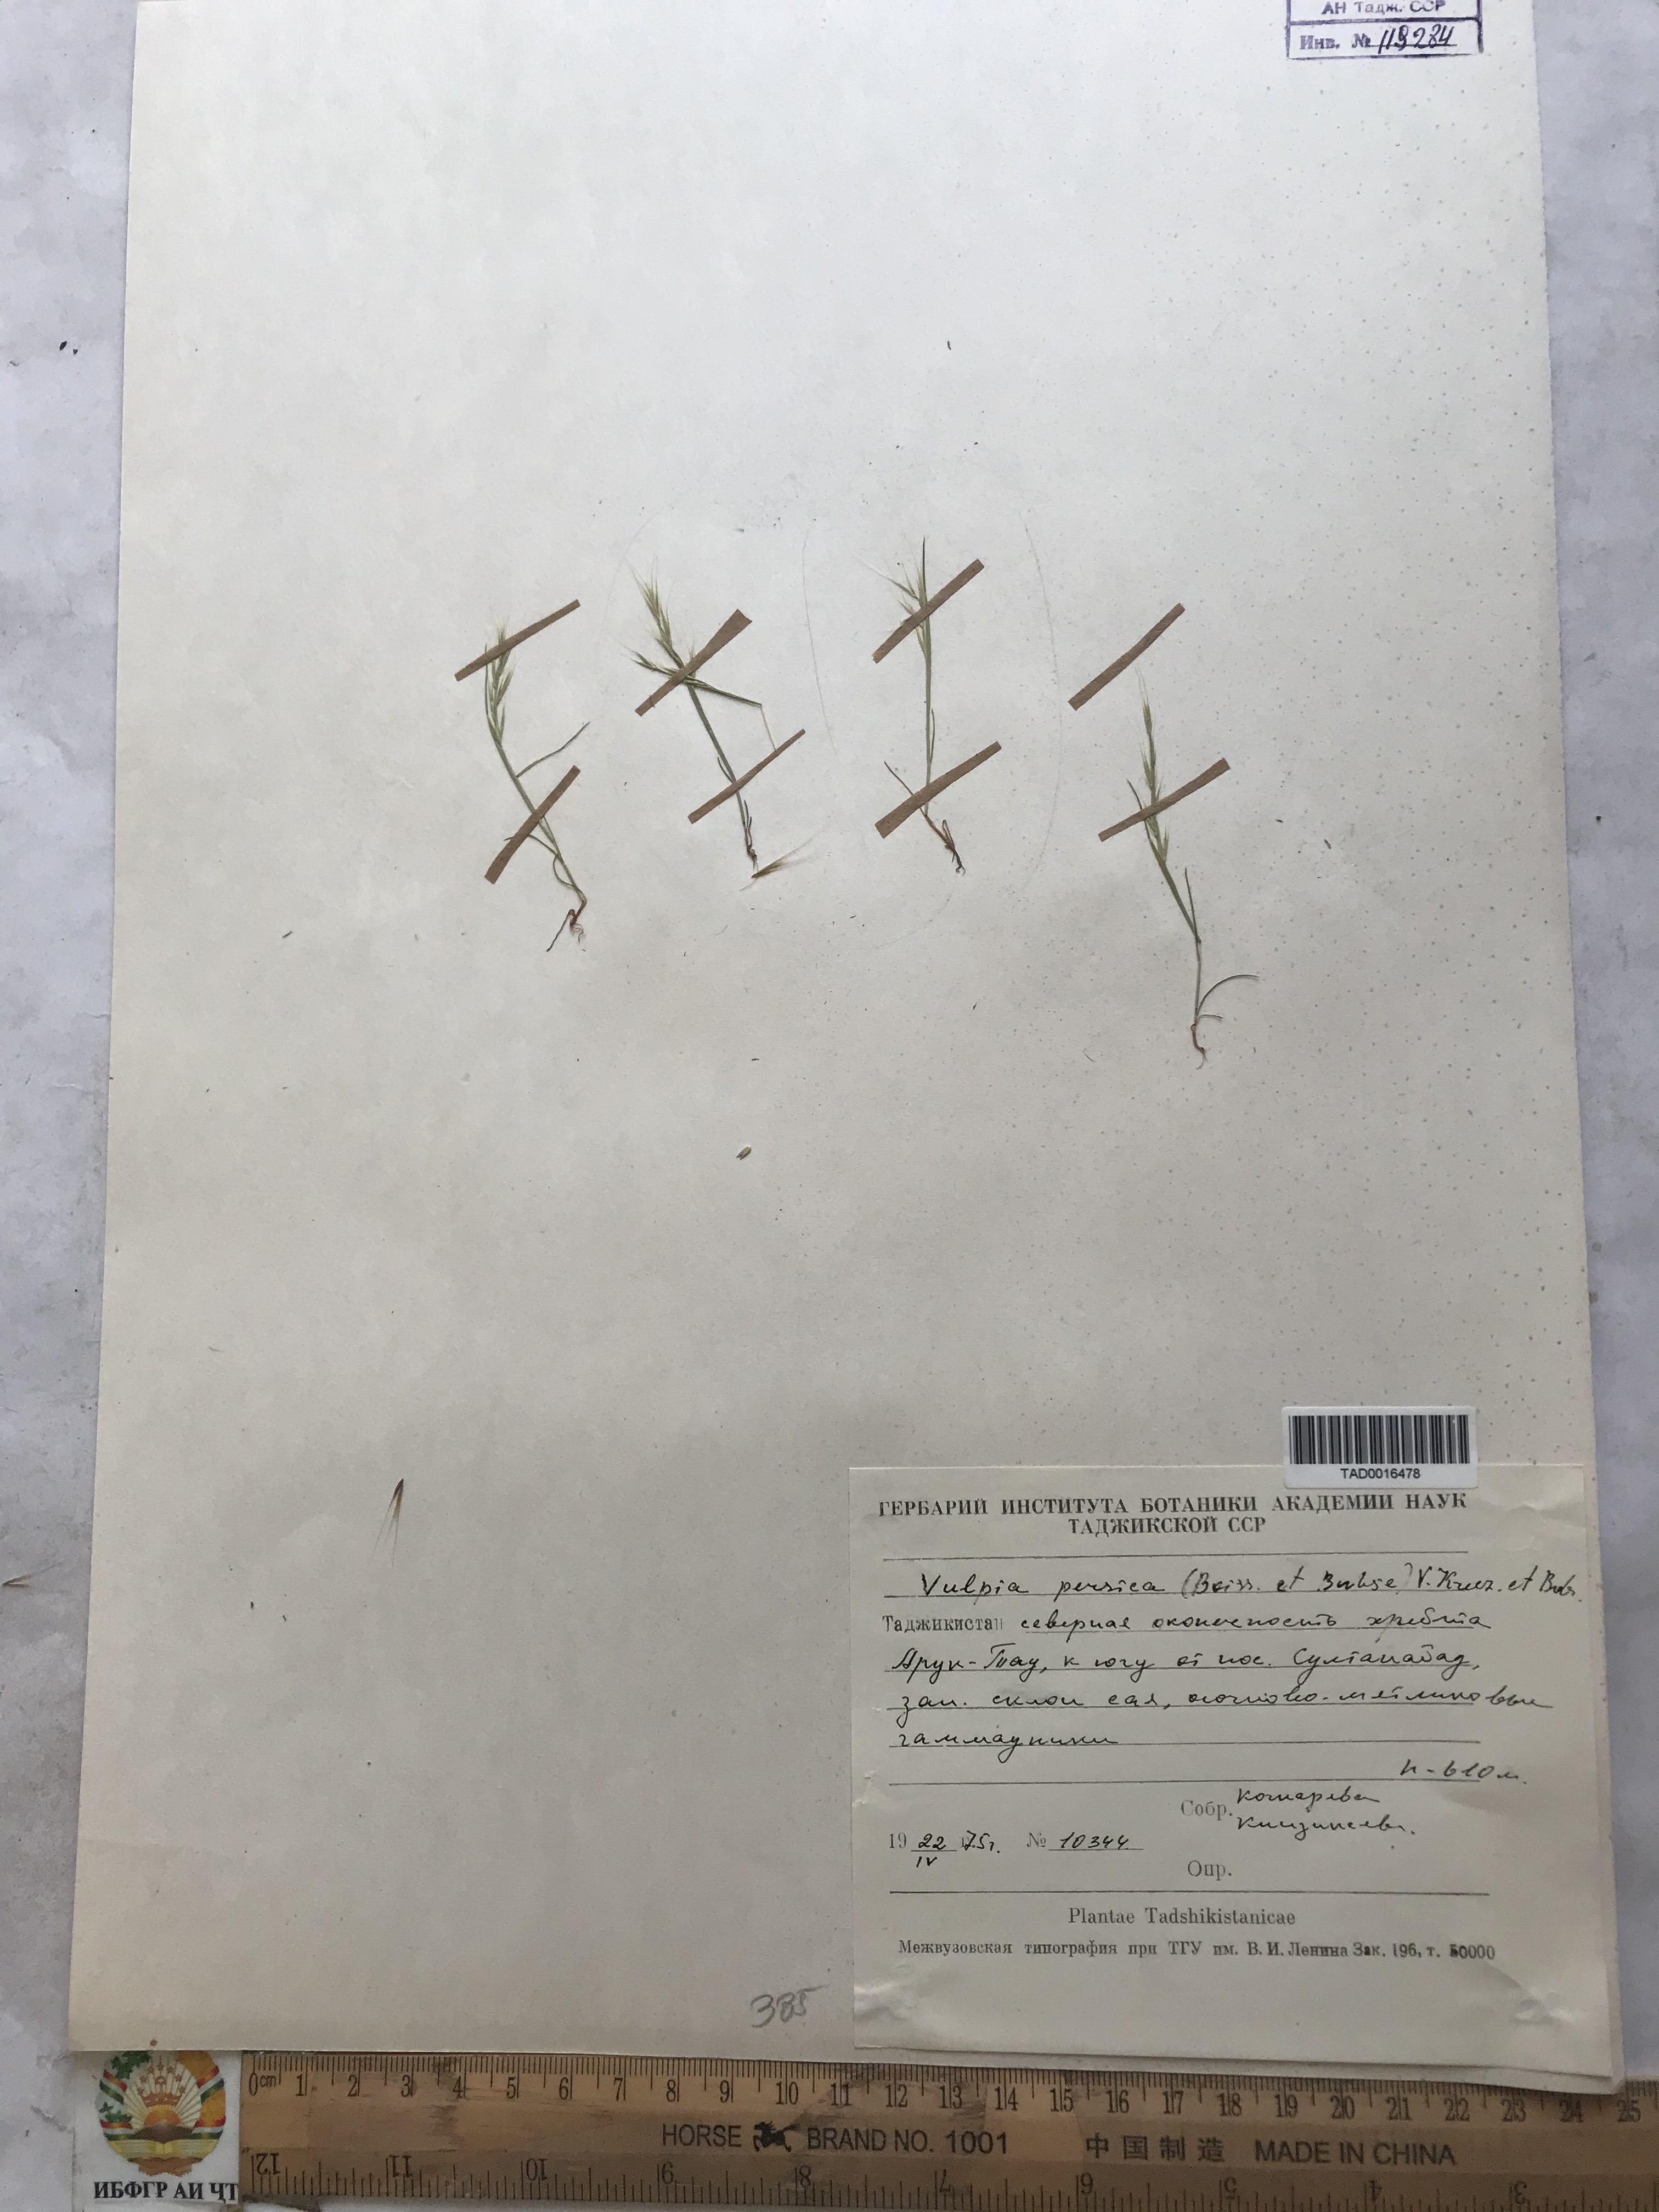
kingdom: Plantae
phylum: Tracheophyta
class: Liliopsida
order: Poales
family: Poaceae
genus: Festuca
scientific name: Festuca Vulpia persica
